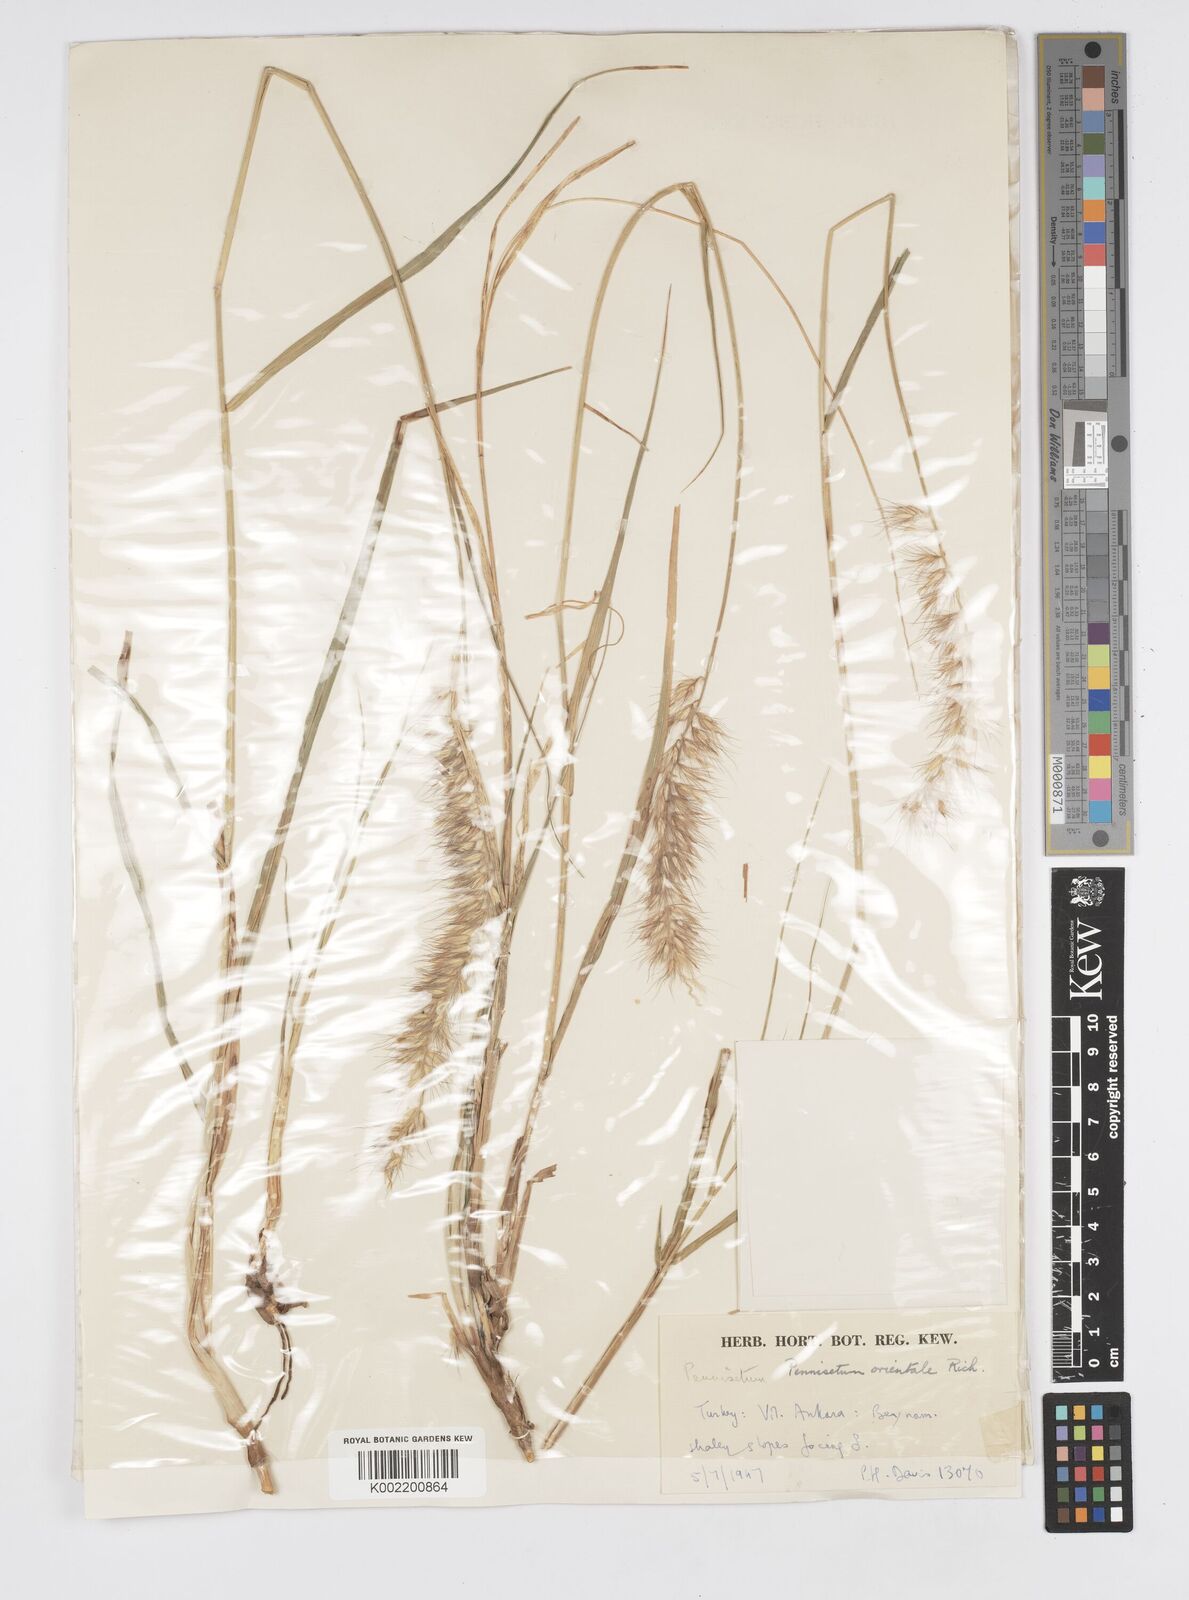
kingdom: Plantae
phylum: Tracheophyta
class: Liliopsida
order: Poales
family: Poaceae
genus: Cenchrus
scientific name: Cenchrus orientalis
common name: Oriental fountain grass
